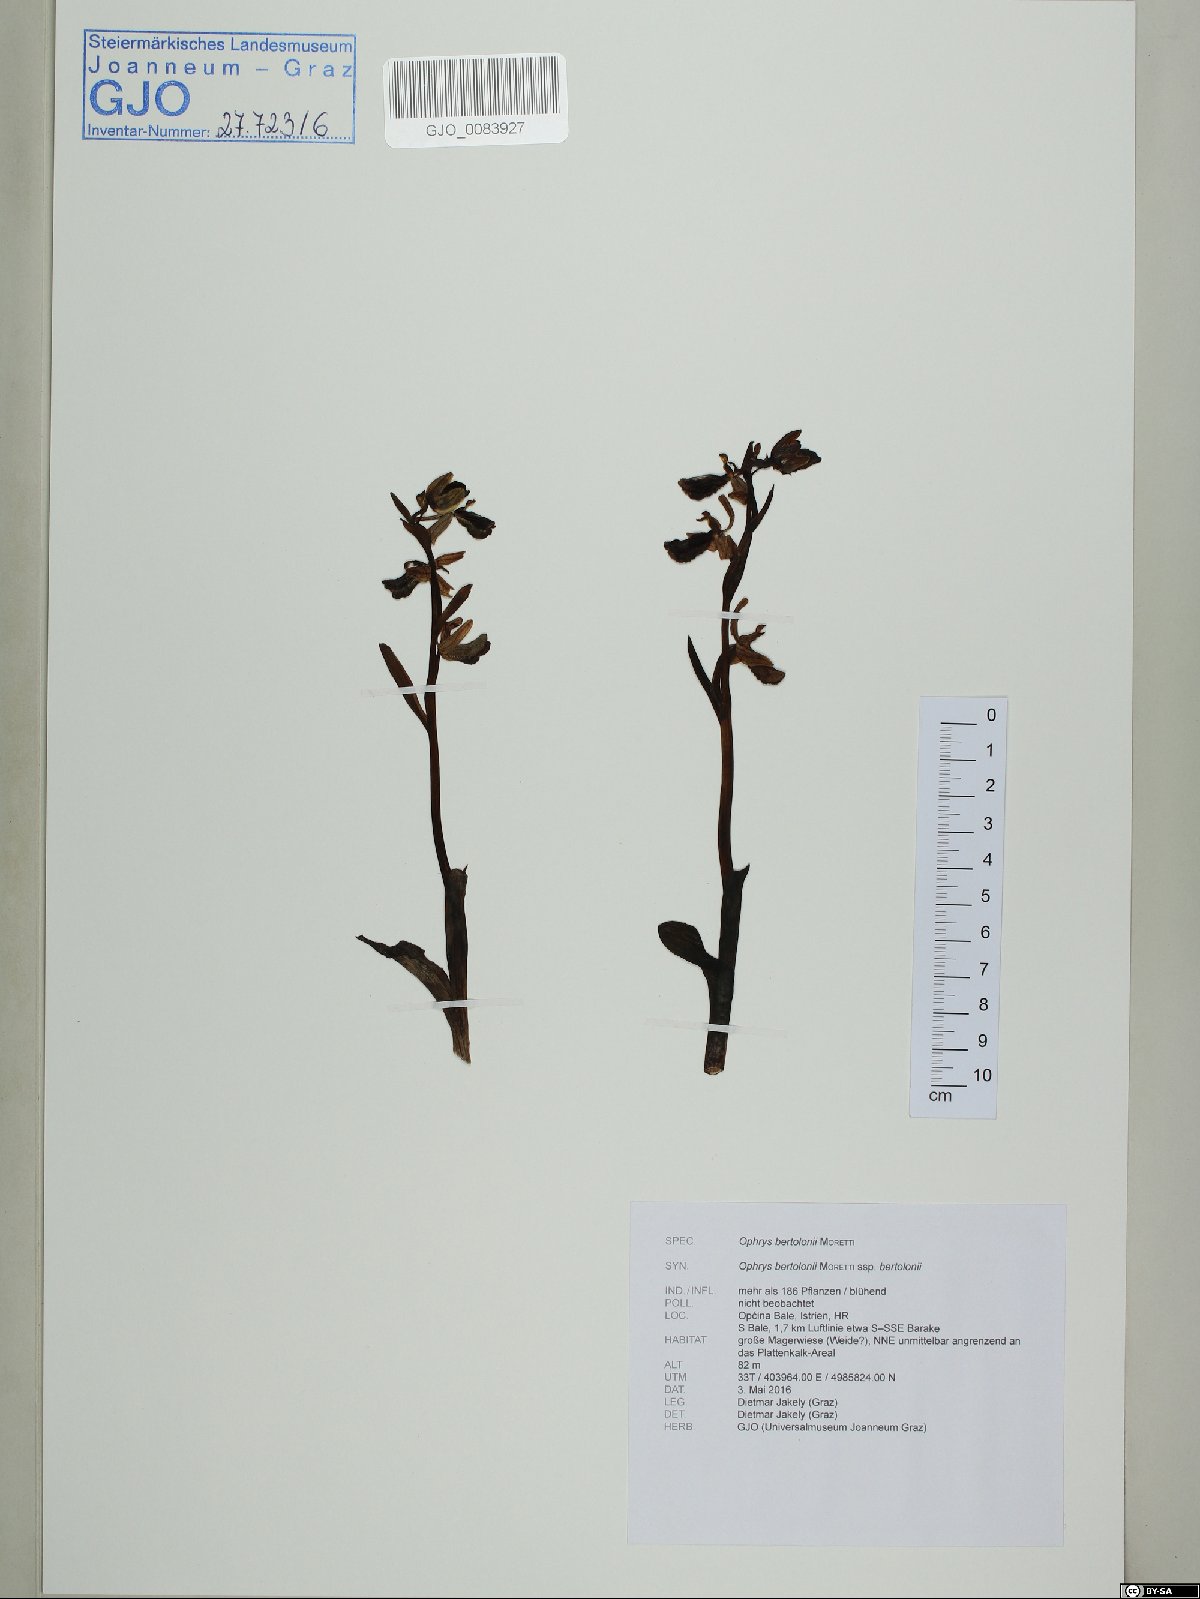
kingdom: Plantae
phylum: Tracheophyta
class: Liliopsida
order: Asparagales
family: Orchidaceae
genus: Ophrys
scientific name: Ophrys bertolonii
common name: Bertoloni's bee orchid
